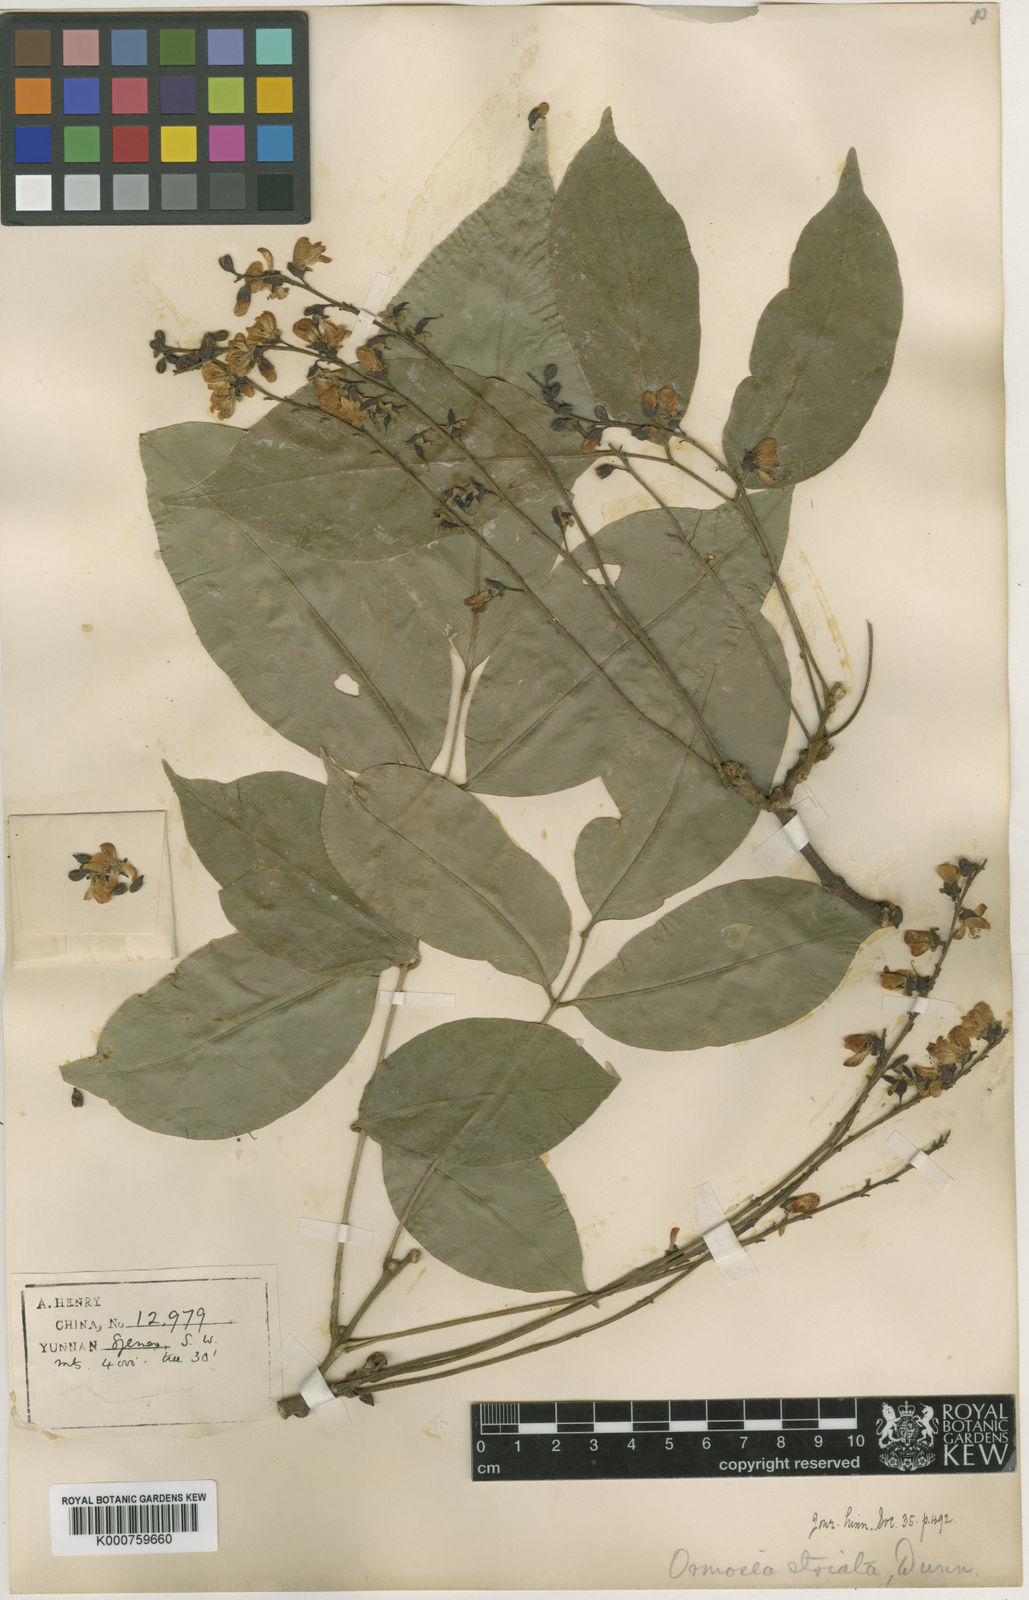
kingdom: Plantae
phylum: Tracheophyta
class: Magnoliopsida
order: Fabales
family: Fabaceae
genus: Ormosia
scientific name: Ormosia striata
